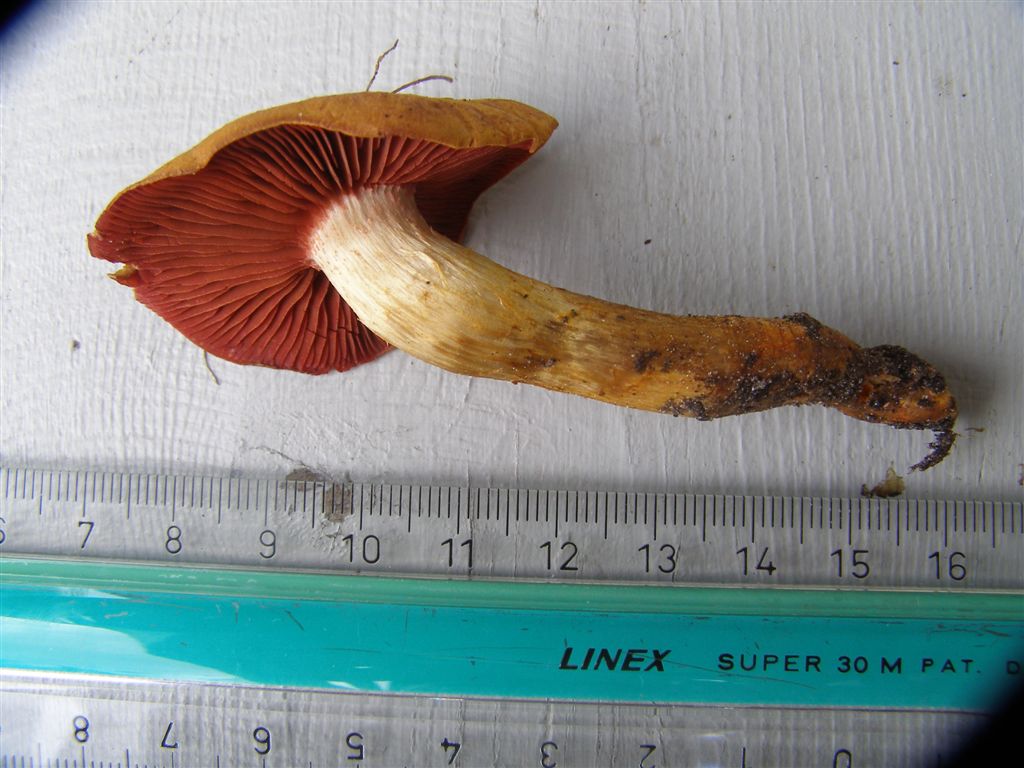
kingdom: Fungi
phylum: Basidiomycota
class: Agaricomycetes
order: Agaricales
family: Cortinariaceae
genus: Cortinarius
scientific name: Cortinarius purpureus
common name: brunrød slørhat
